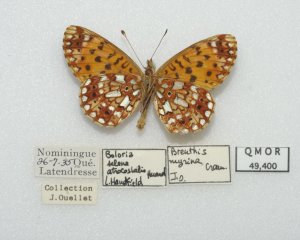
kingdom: Animalia
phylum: Arthropoda
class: Insecta
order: Lepidoptera
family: Nymphalidae
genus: Boloria
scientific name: Boloria selene
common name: Silver-bordered Fritillary
